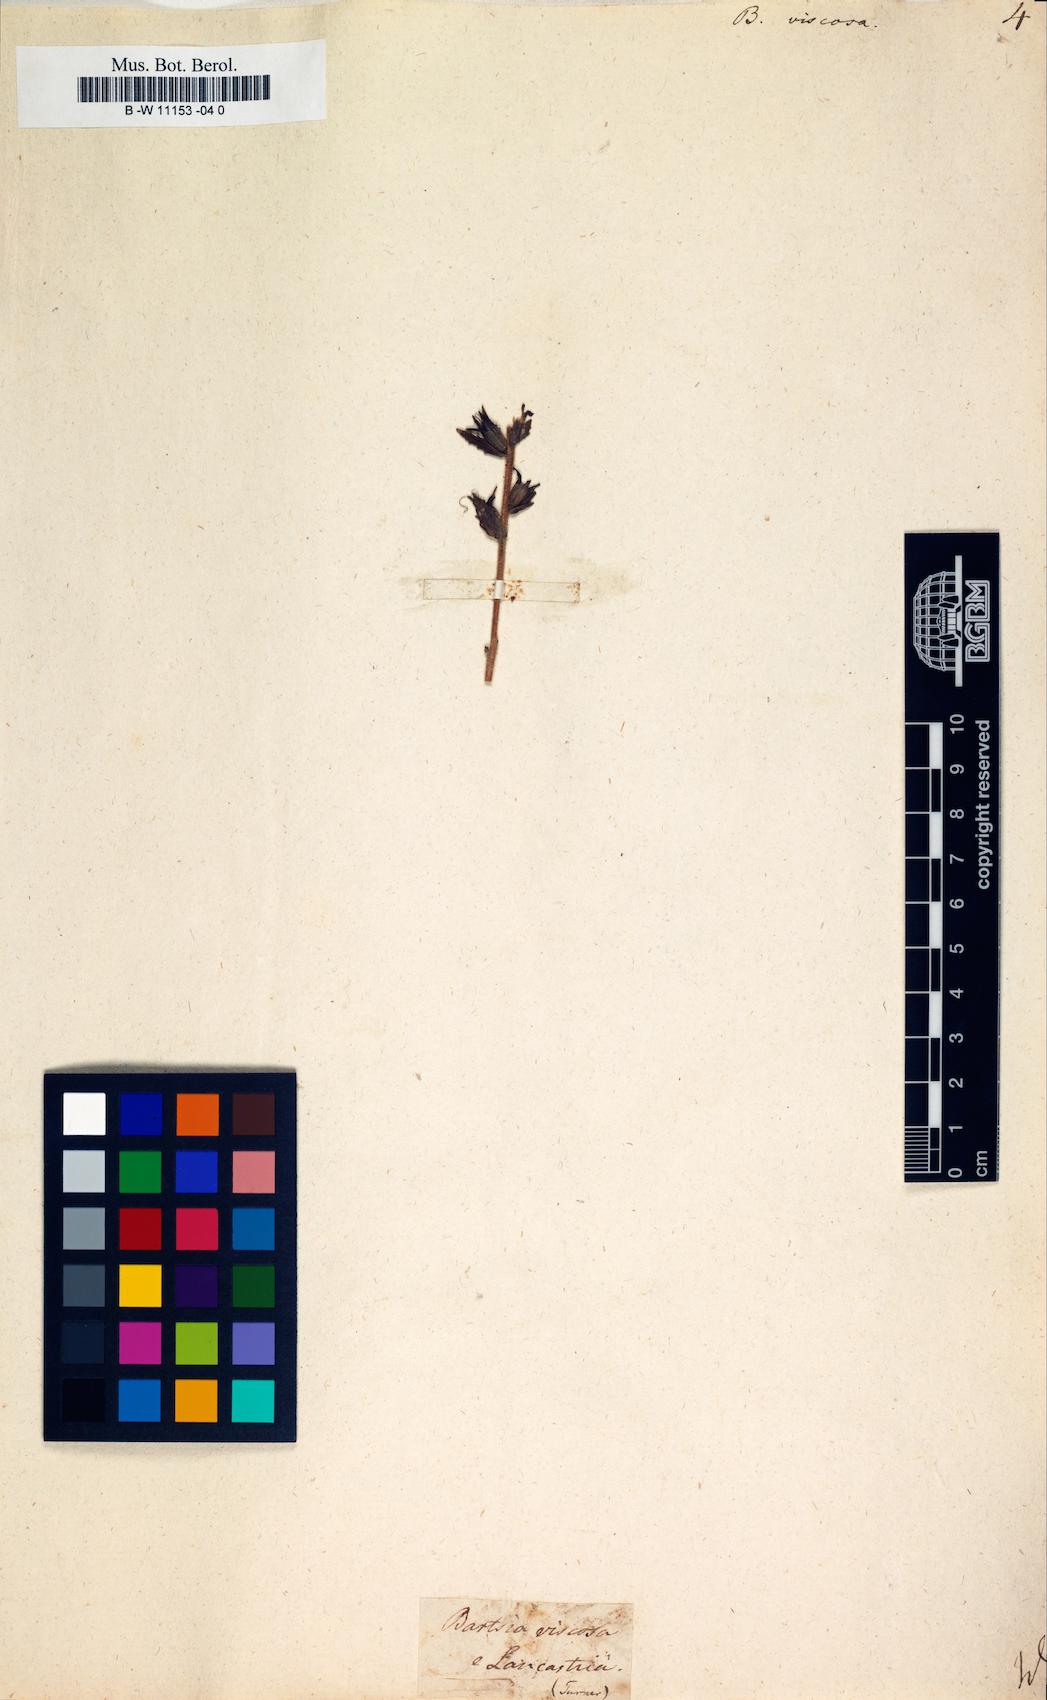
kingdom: Plantae
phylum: Tracheophyta
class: Magnoliopsida
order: Lamiales
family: Orobanchaceae
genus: Bellardia
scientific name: Bellardia viscosa
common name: Sticky parentucellia
